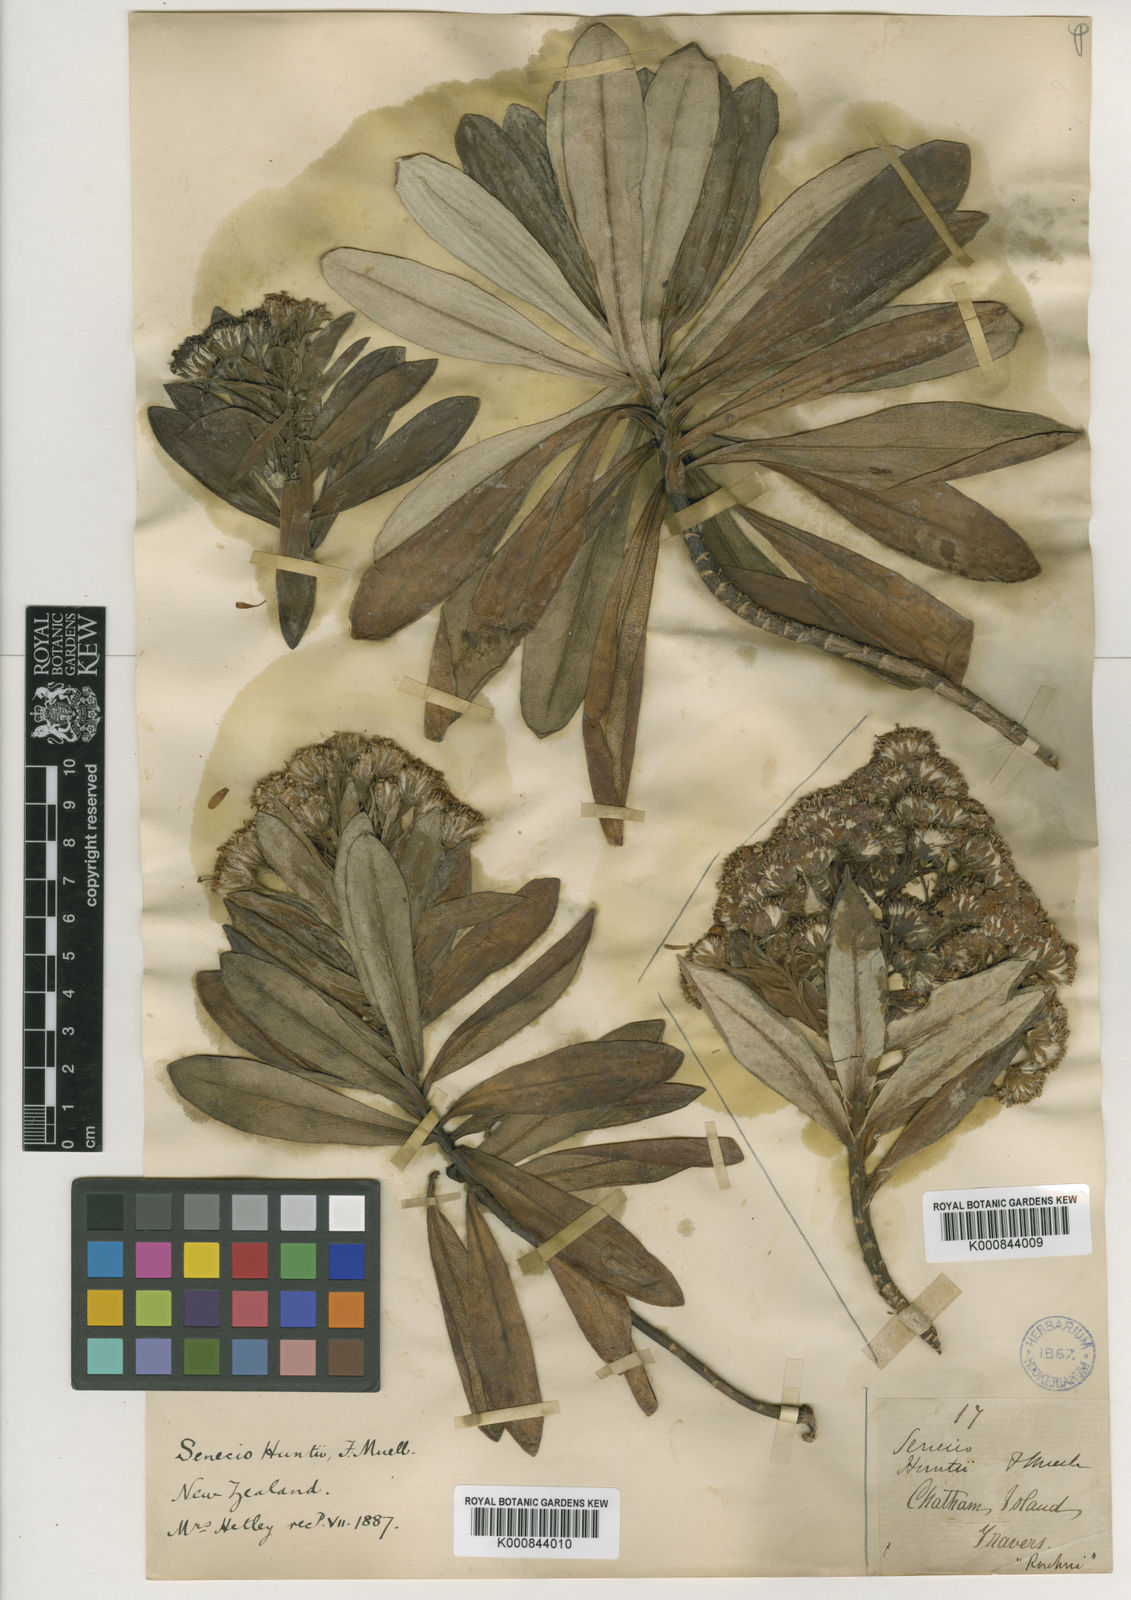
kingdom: Plantae
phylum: Tracheophyta
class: Magnoliopsida
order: Asterales
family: Asteraceae
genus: Brachyglottis
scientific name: Brachyglottis huntii
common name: Chatham island christmas tree
